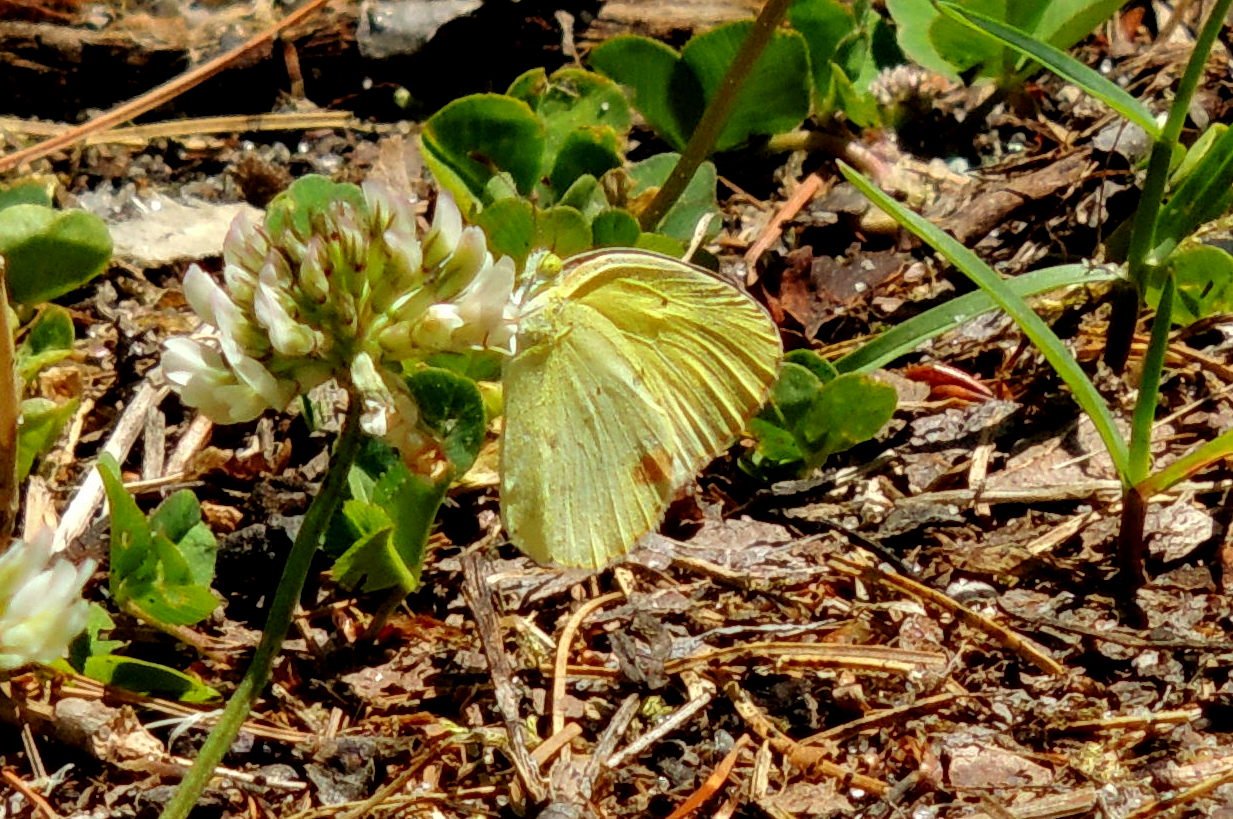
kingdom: Animalia
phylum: Arthropoda
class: Insecta
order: Lepidoptera
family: Pieridae
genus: Pyrisitia
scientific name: Pyrisitia lisa
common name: Little Yellow
